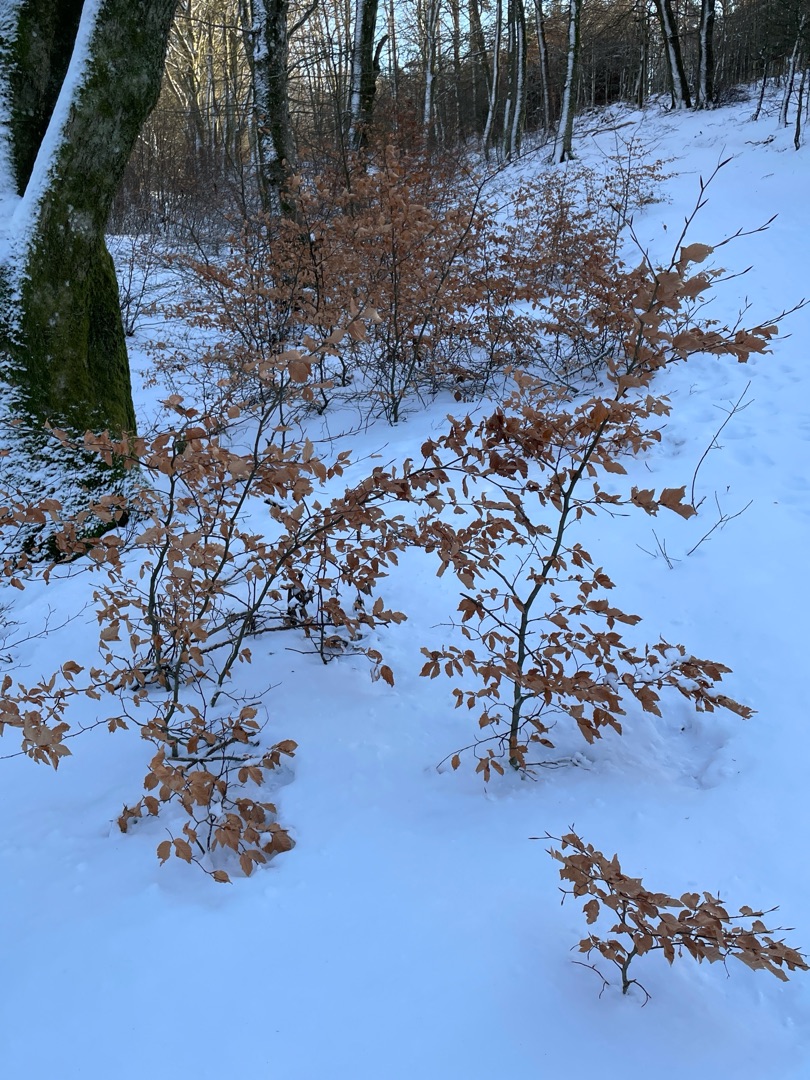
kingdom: Plantae
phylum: Tracheophyta
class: Magnoliopsida
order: Fagales
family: Fagaceae
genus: Fagus
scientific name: Fagus sylvatica
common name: Bøg
